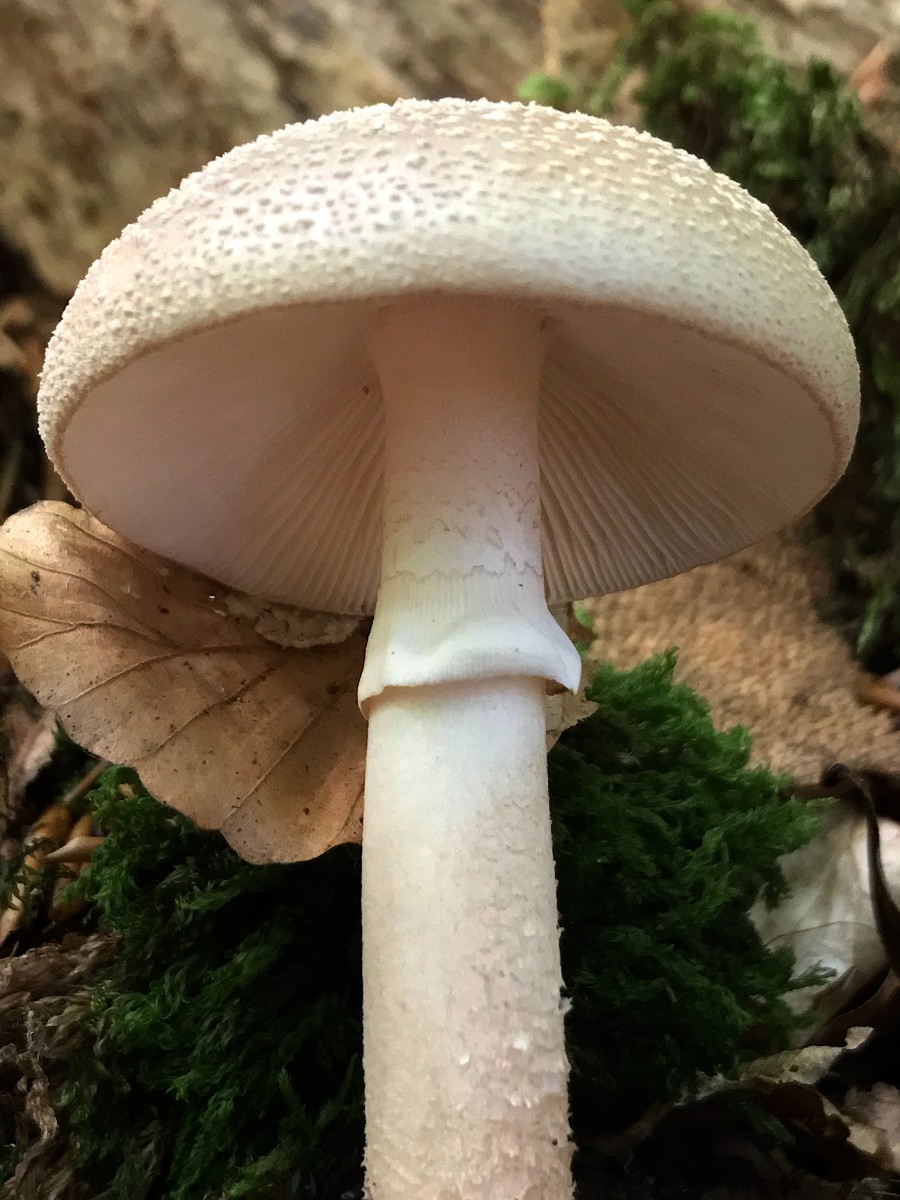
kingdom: Fungi
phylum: Basidiomycota
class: Agaricomycetes
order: Agaricales
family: Amanitaceae
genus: Amanita
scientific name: Amanita rubescens
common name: rødmende fluesvamp
